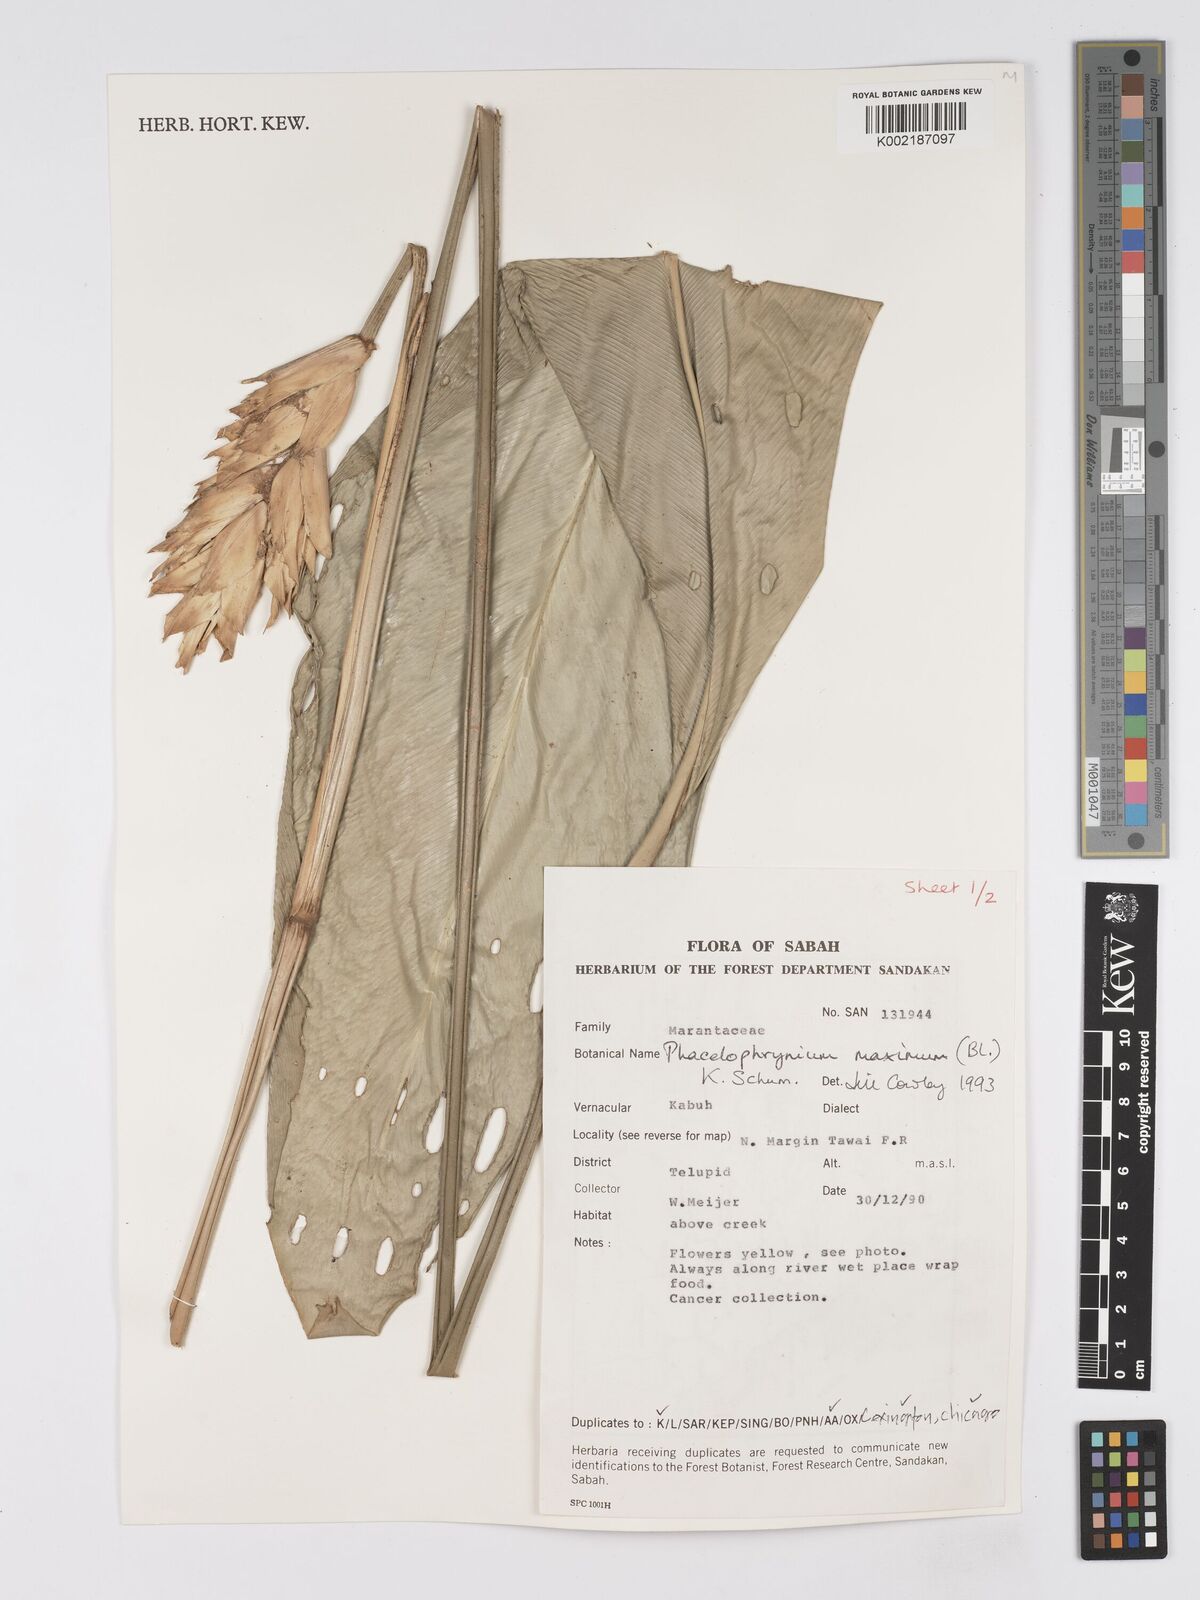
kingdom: Plantae
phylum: Tracheophyta
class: Liliopsida
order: Zingiberales
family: Marantaceae
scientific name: Marantaceae
